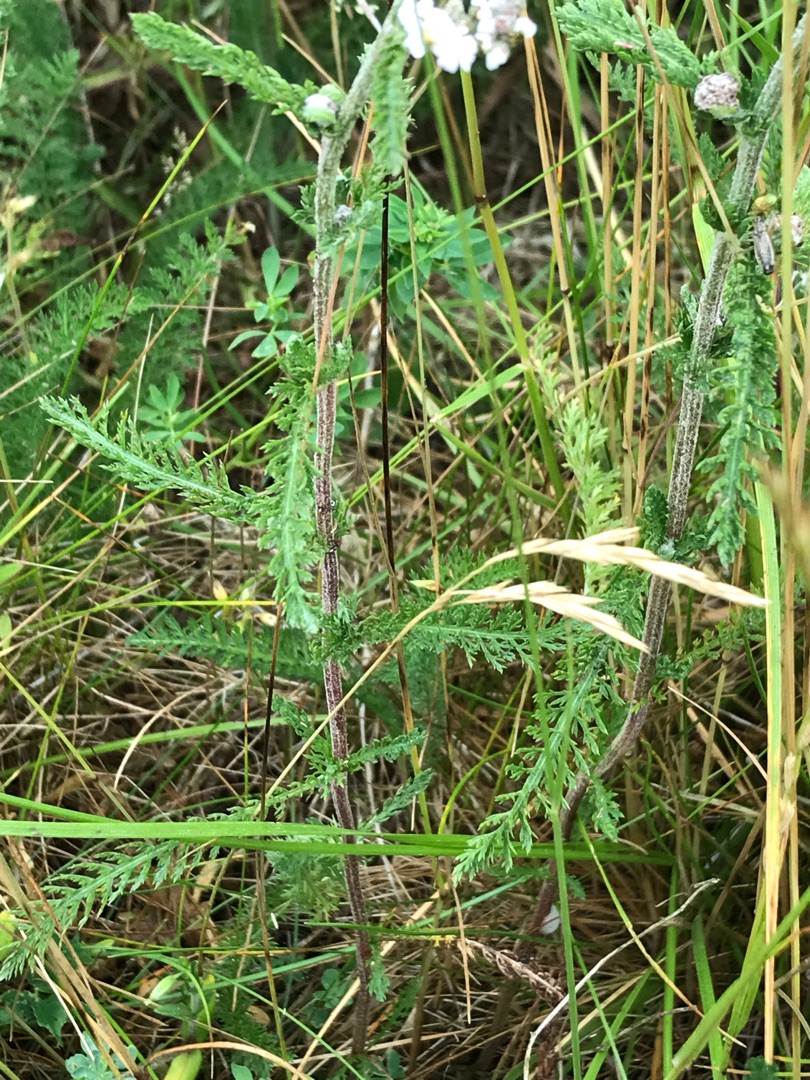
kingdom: Plantae
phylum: Tracheophyta
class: Magnoliopsida
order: Asterales
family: Asteraceae
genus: Achillea
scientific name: Achillea millefolium
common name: Almindelig røllike
